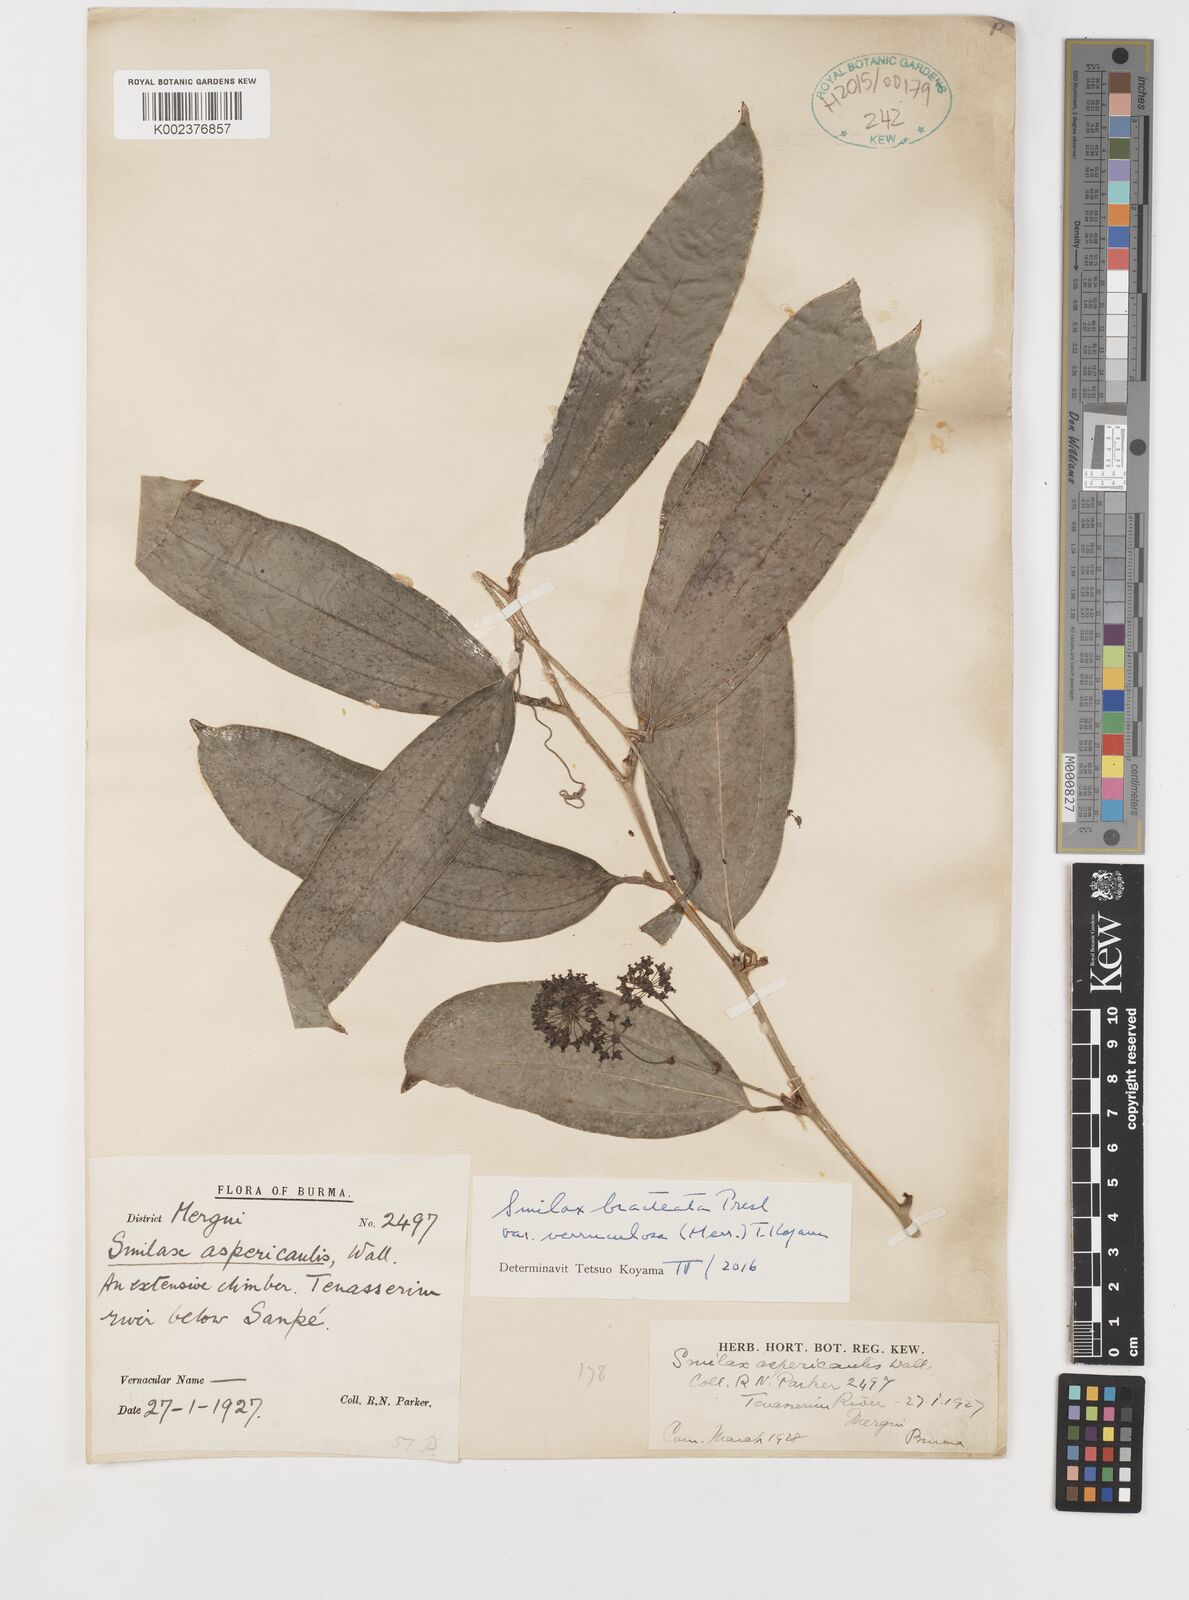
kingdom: Plantae
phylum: Tracheophyta
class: Liliopsida
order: Liliales
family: Smilacaceae
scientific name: Smilacaceae
